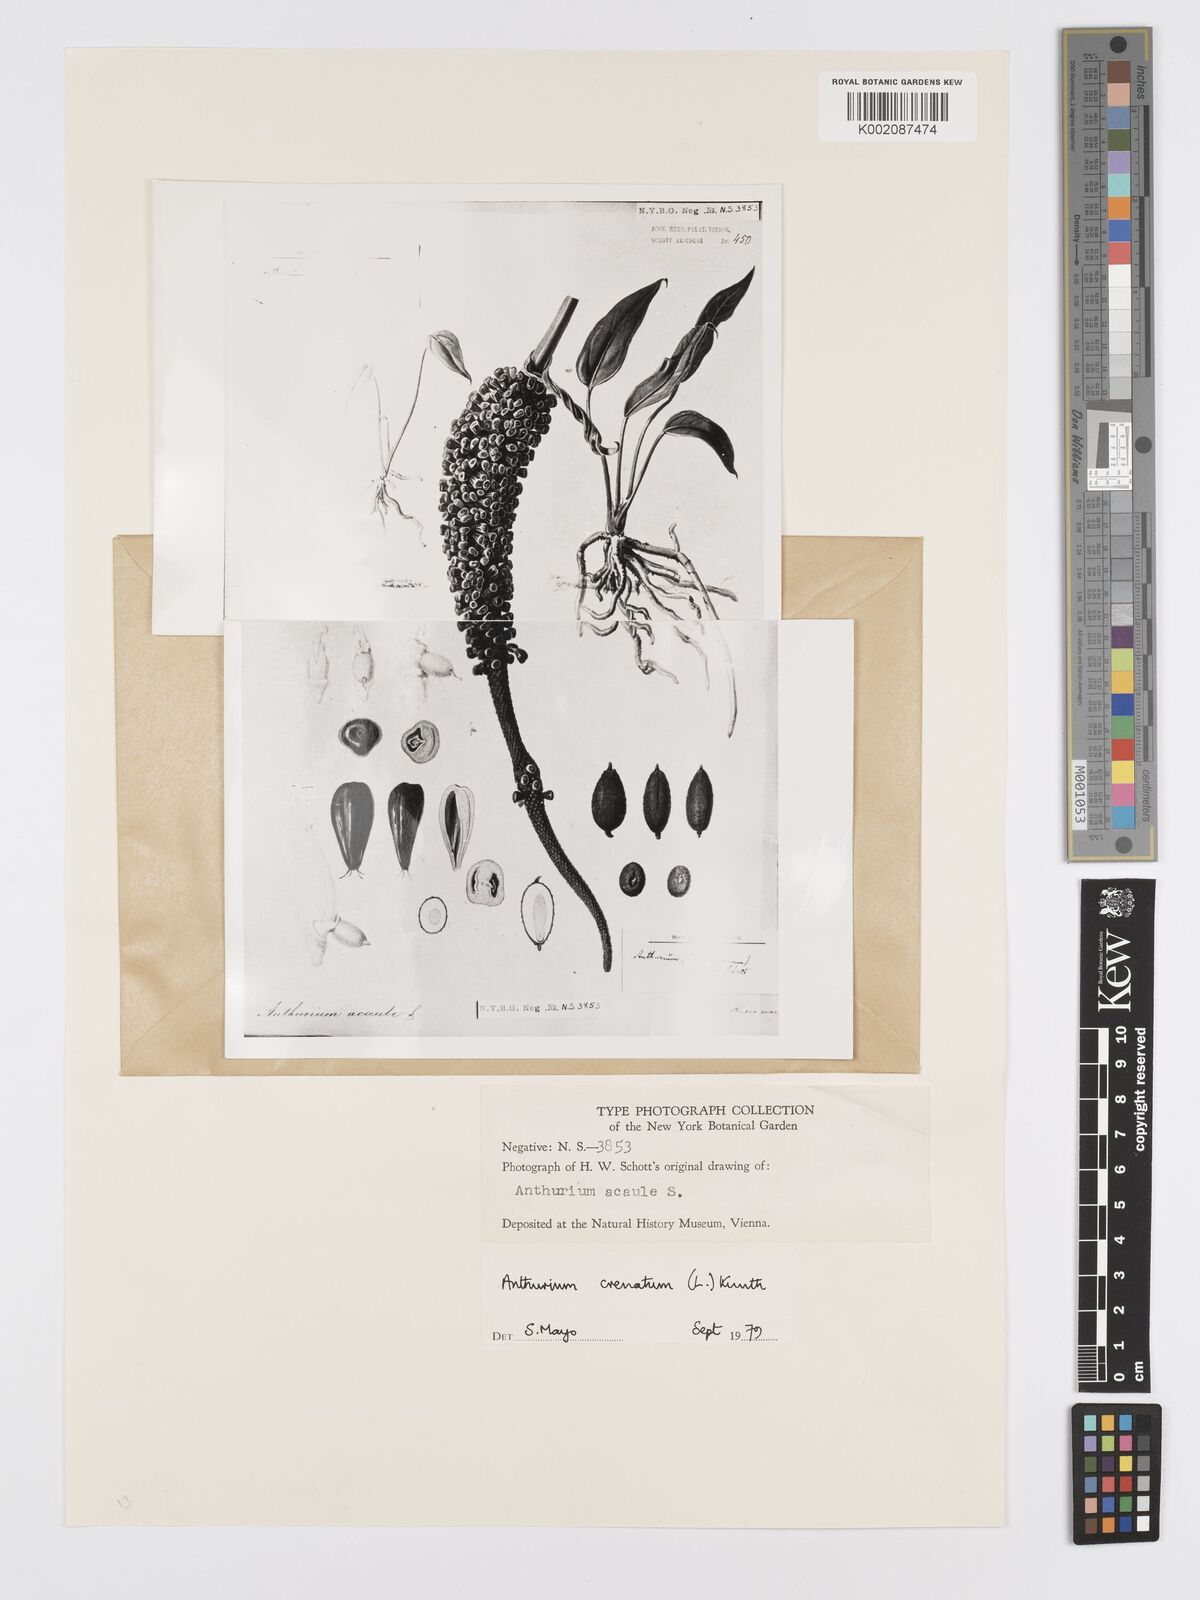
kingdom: Plantae
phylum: Tracheophyta
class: Liliopsida
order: Alismatales
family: Araceae
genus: Anthurium
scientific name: Anthurium crenatum
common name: Scalloped laceleaf
